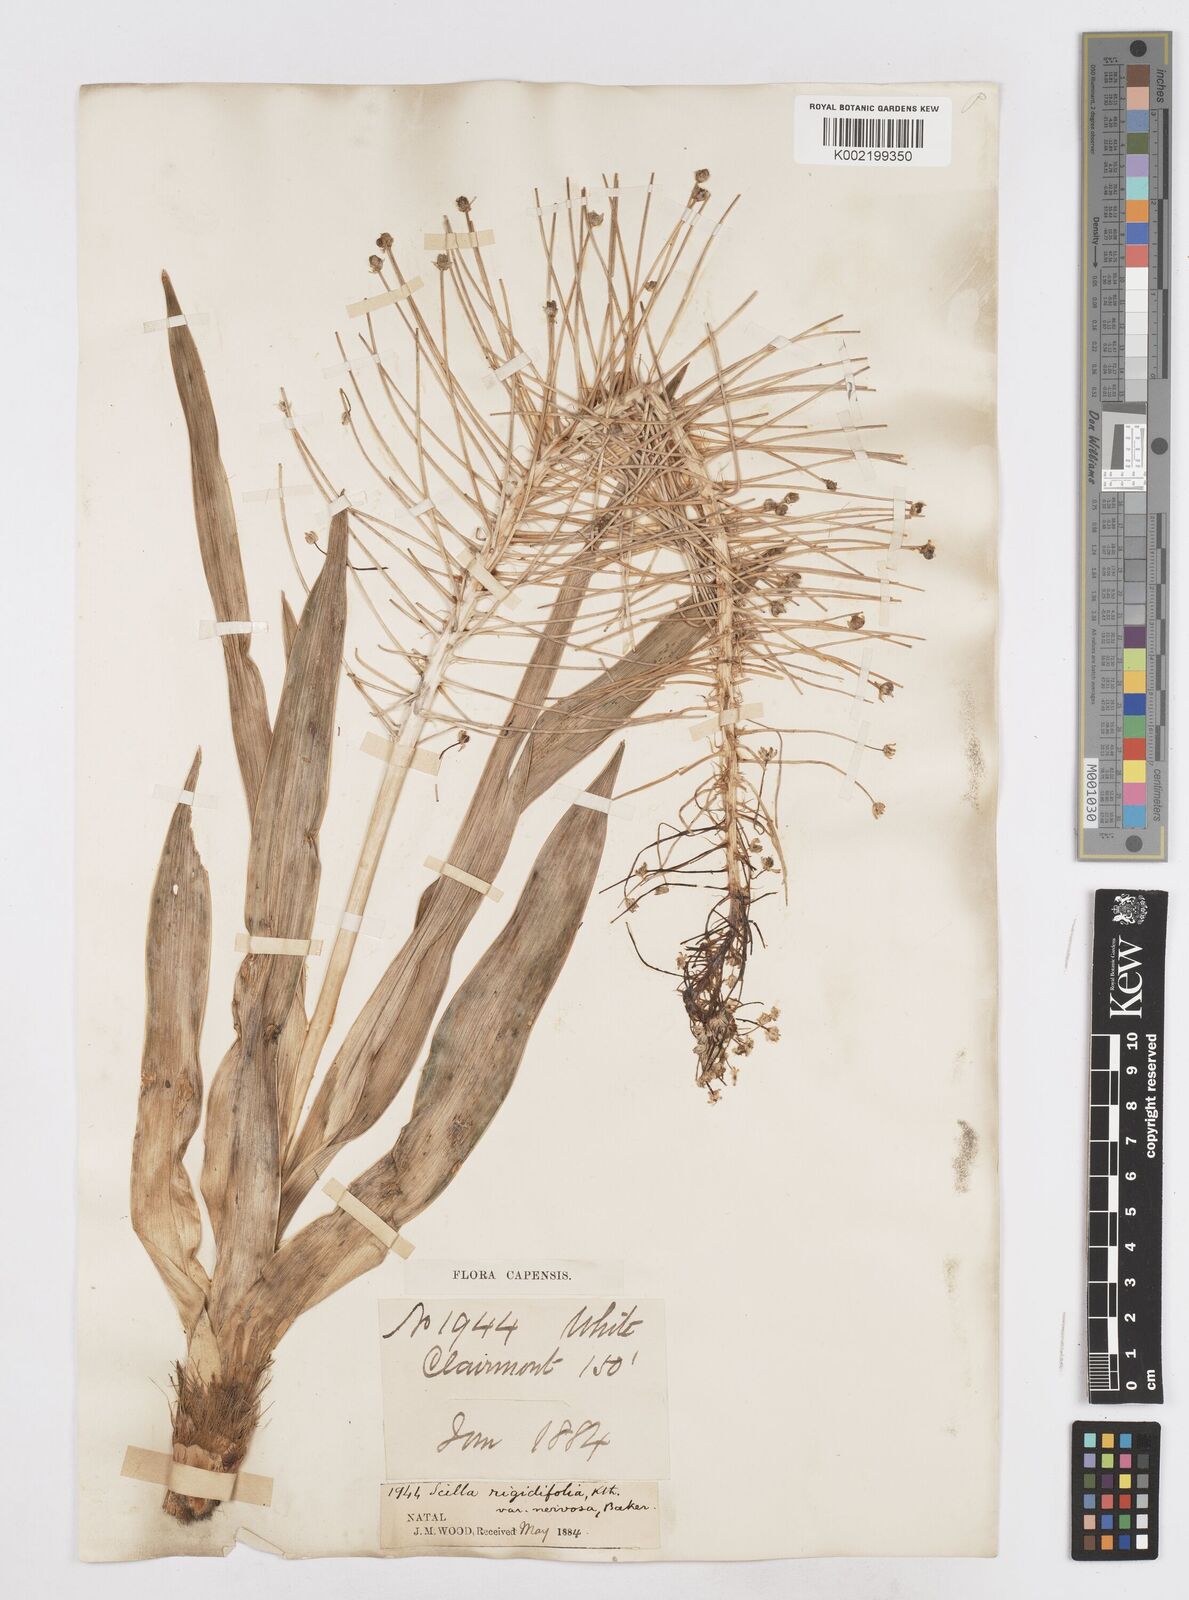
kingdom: Plantae
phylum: Tracheophyta
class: Liliopsida
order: Asparagales
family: Asparagaceae
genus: Schizocarphus
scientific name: Schizocarphus nervosus
